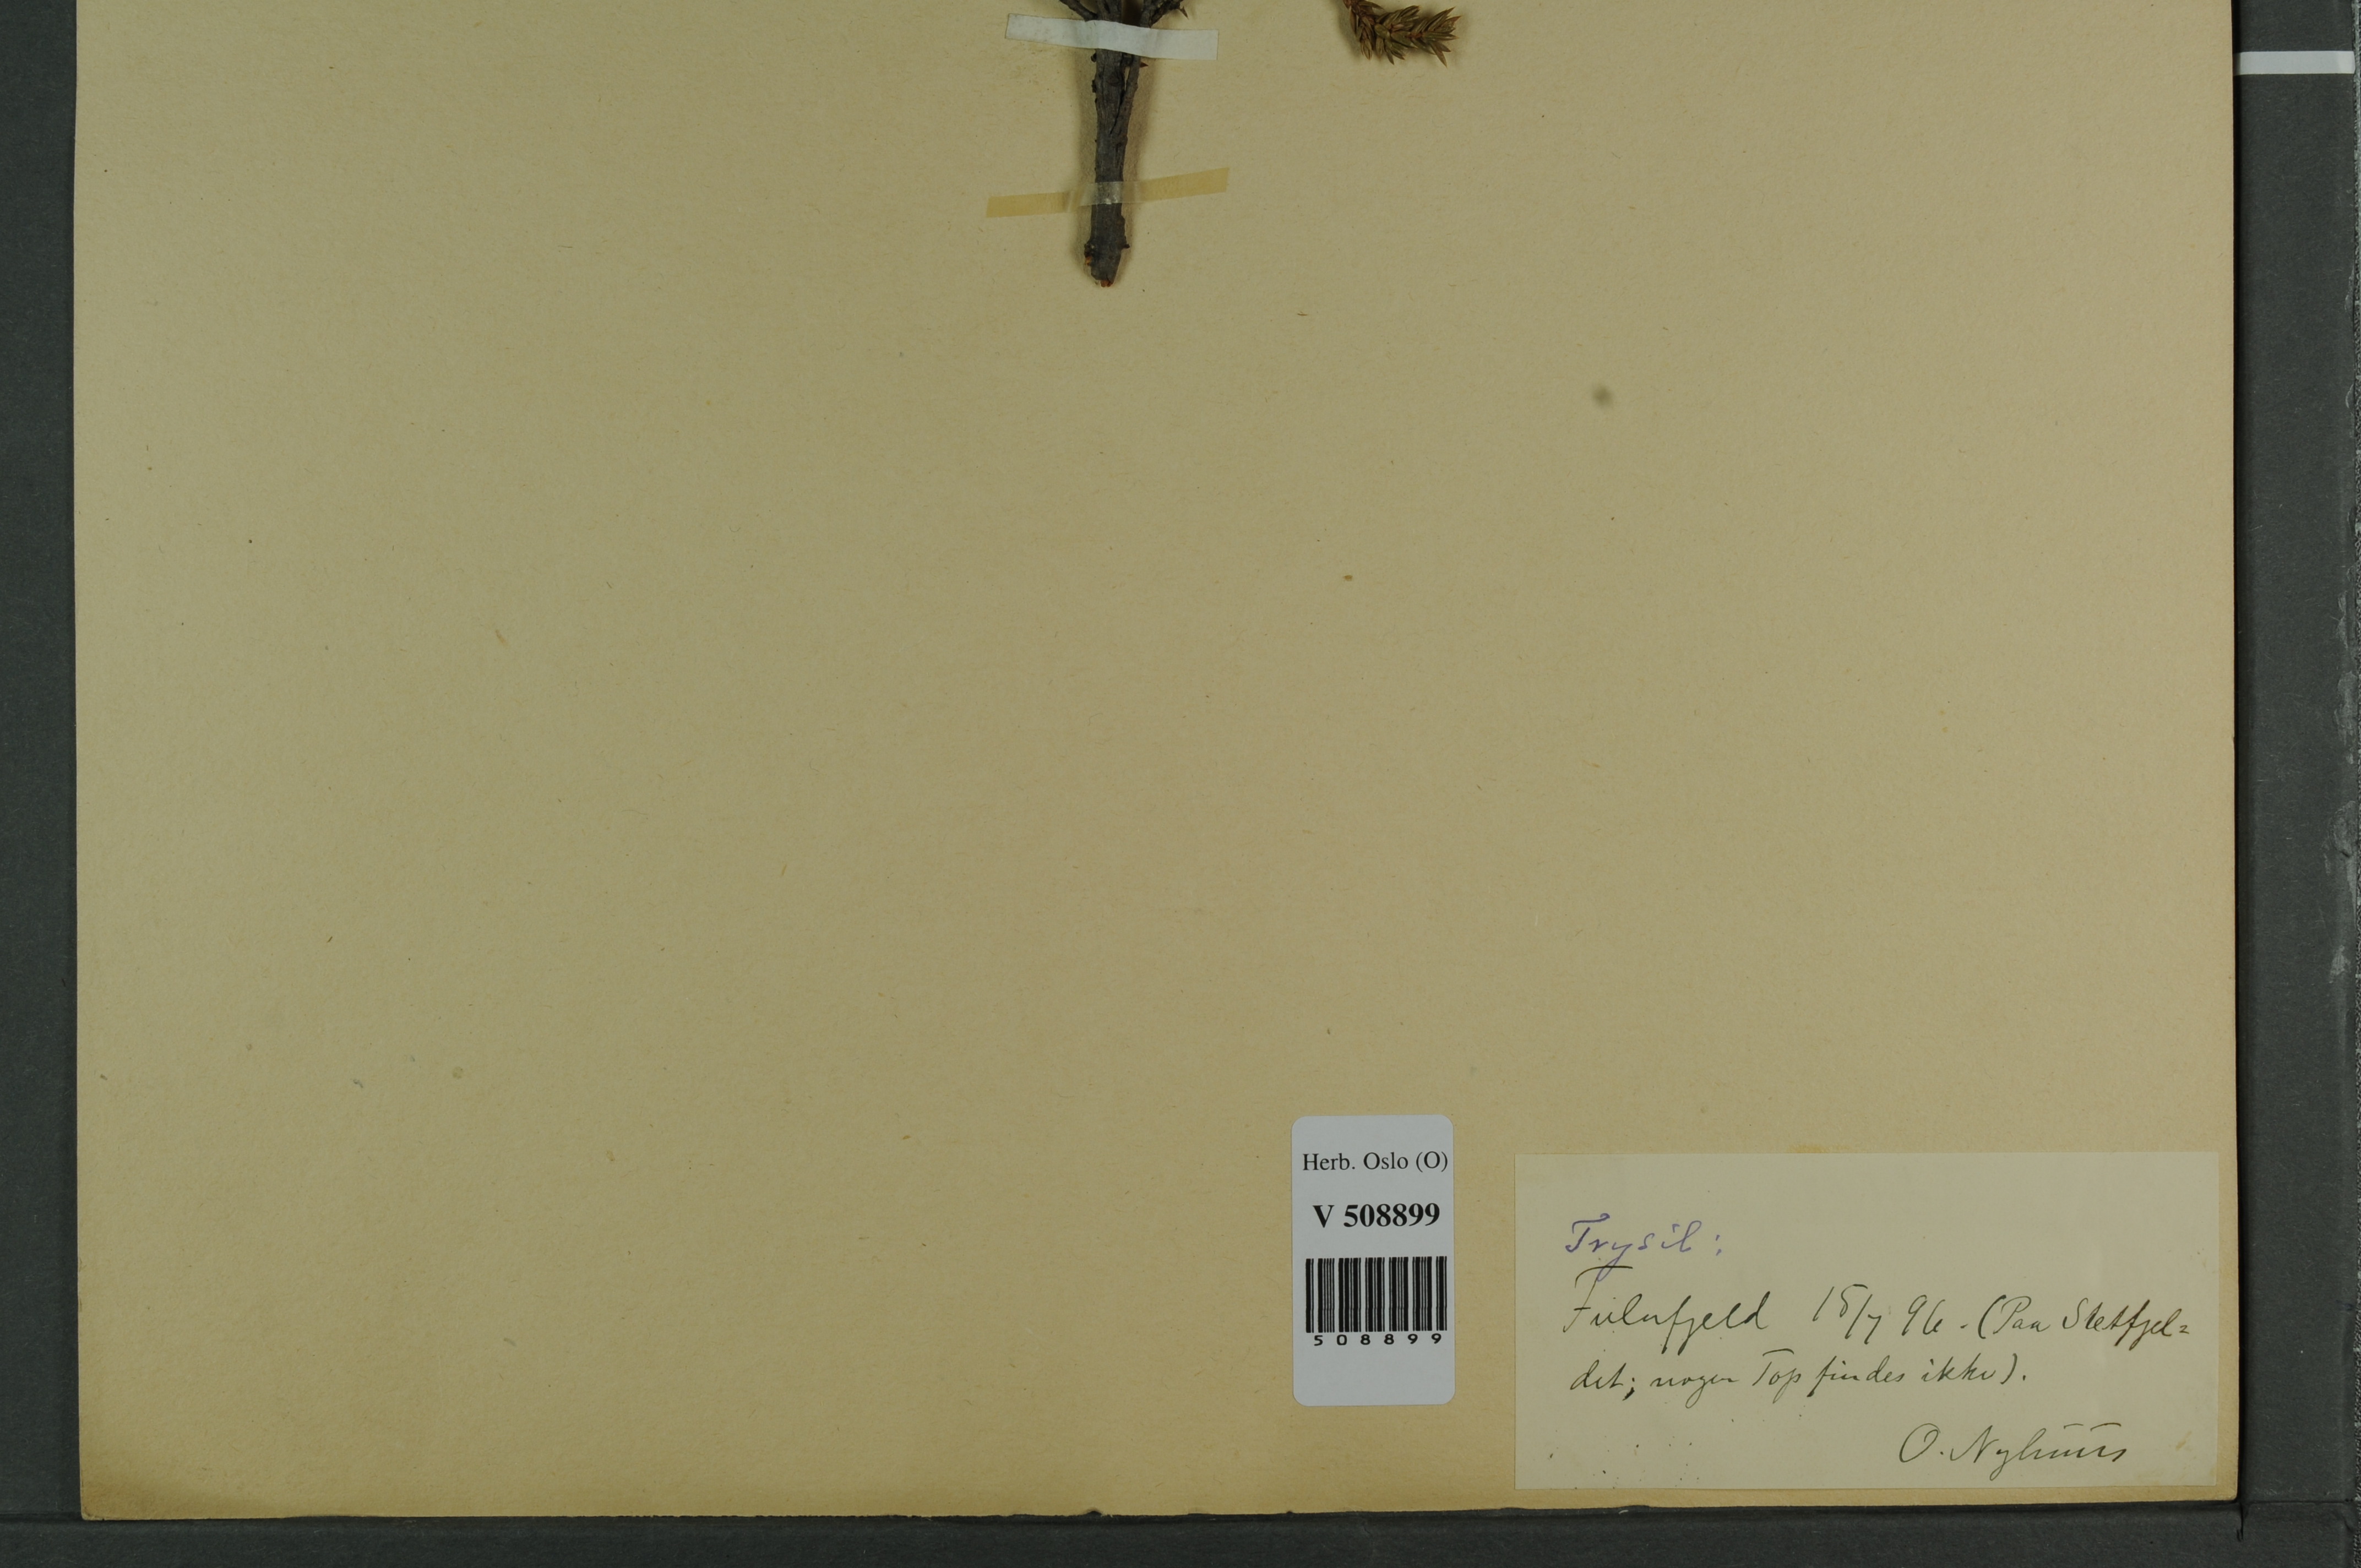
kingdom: Plantae
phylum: Tracheophyta
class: Pinopsida
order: Pinales
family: Cupressaceae
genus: Juniperus
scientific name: Juniperus communis
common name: Common juniper
